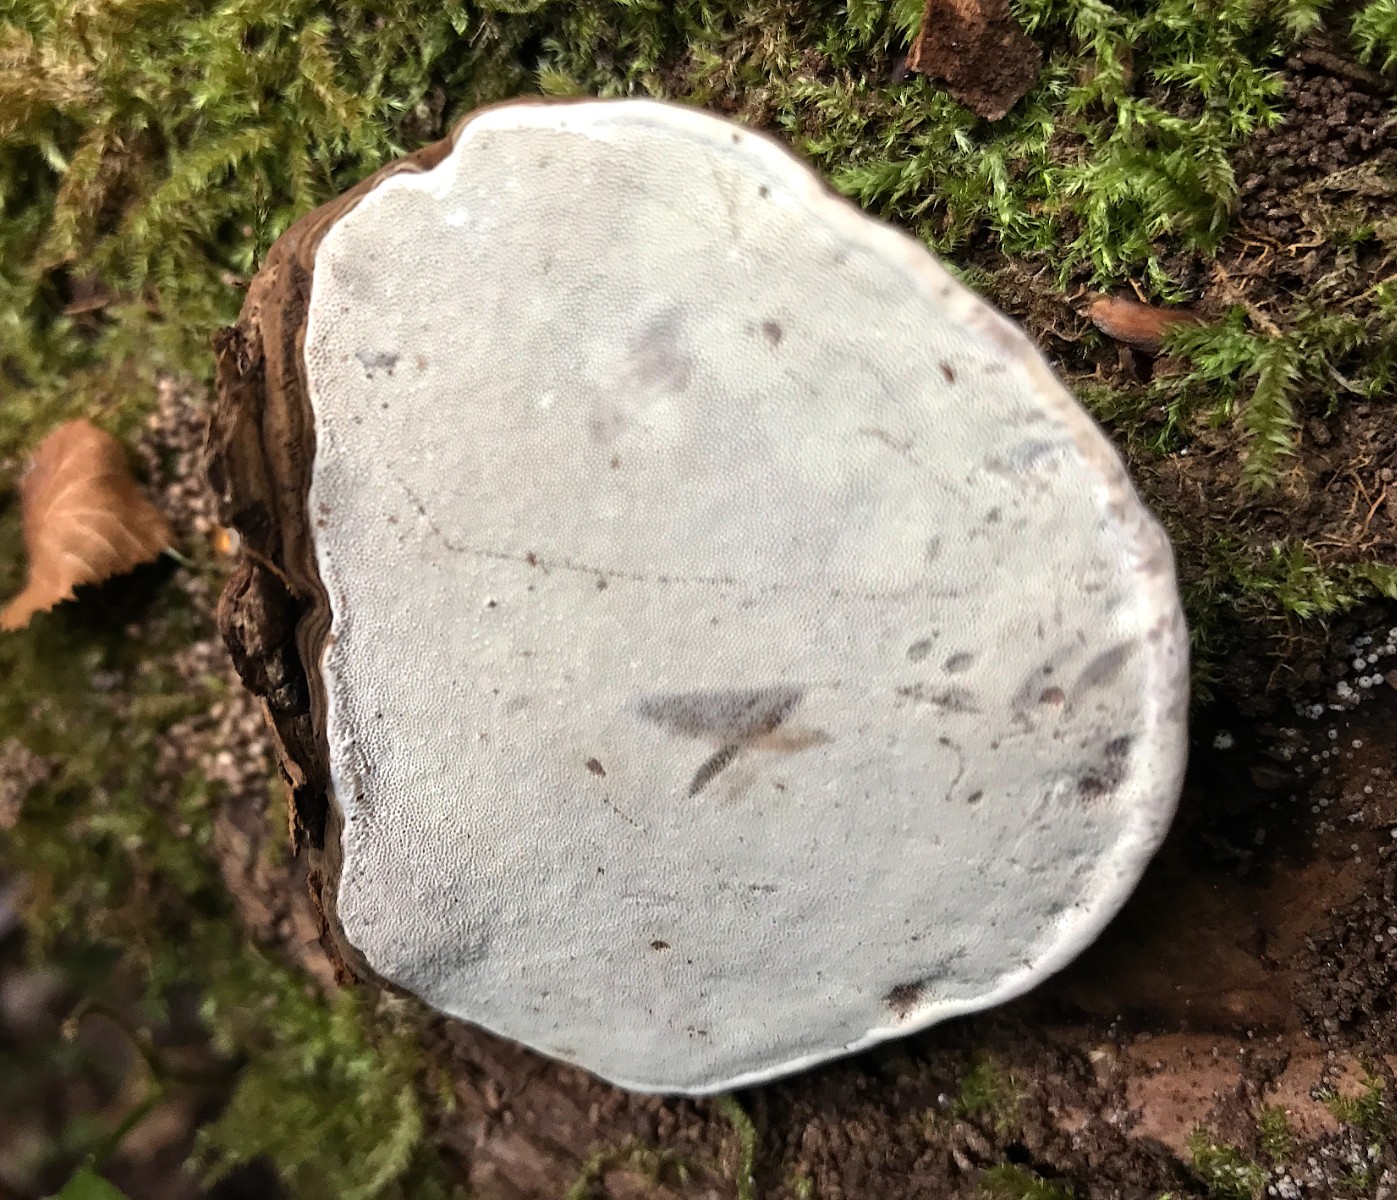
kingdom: Fungi
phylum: Basidiomycota
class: Agaricomycetes
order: Polyporales
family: Polyporaceae
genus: Ganoderma
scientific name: Ganoderma applanatum
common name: flad lakporesvamp
